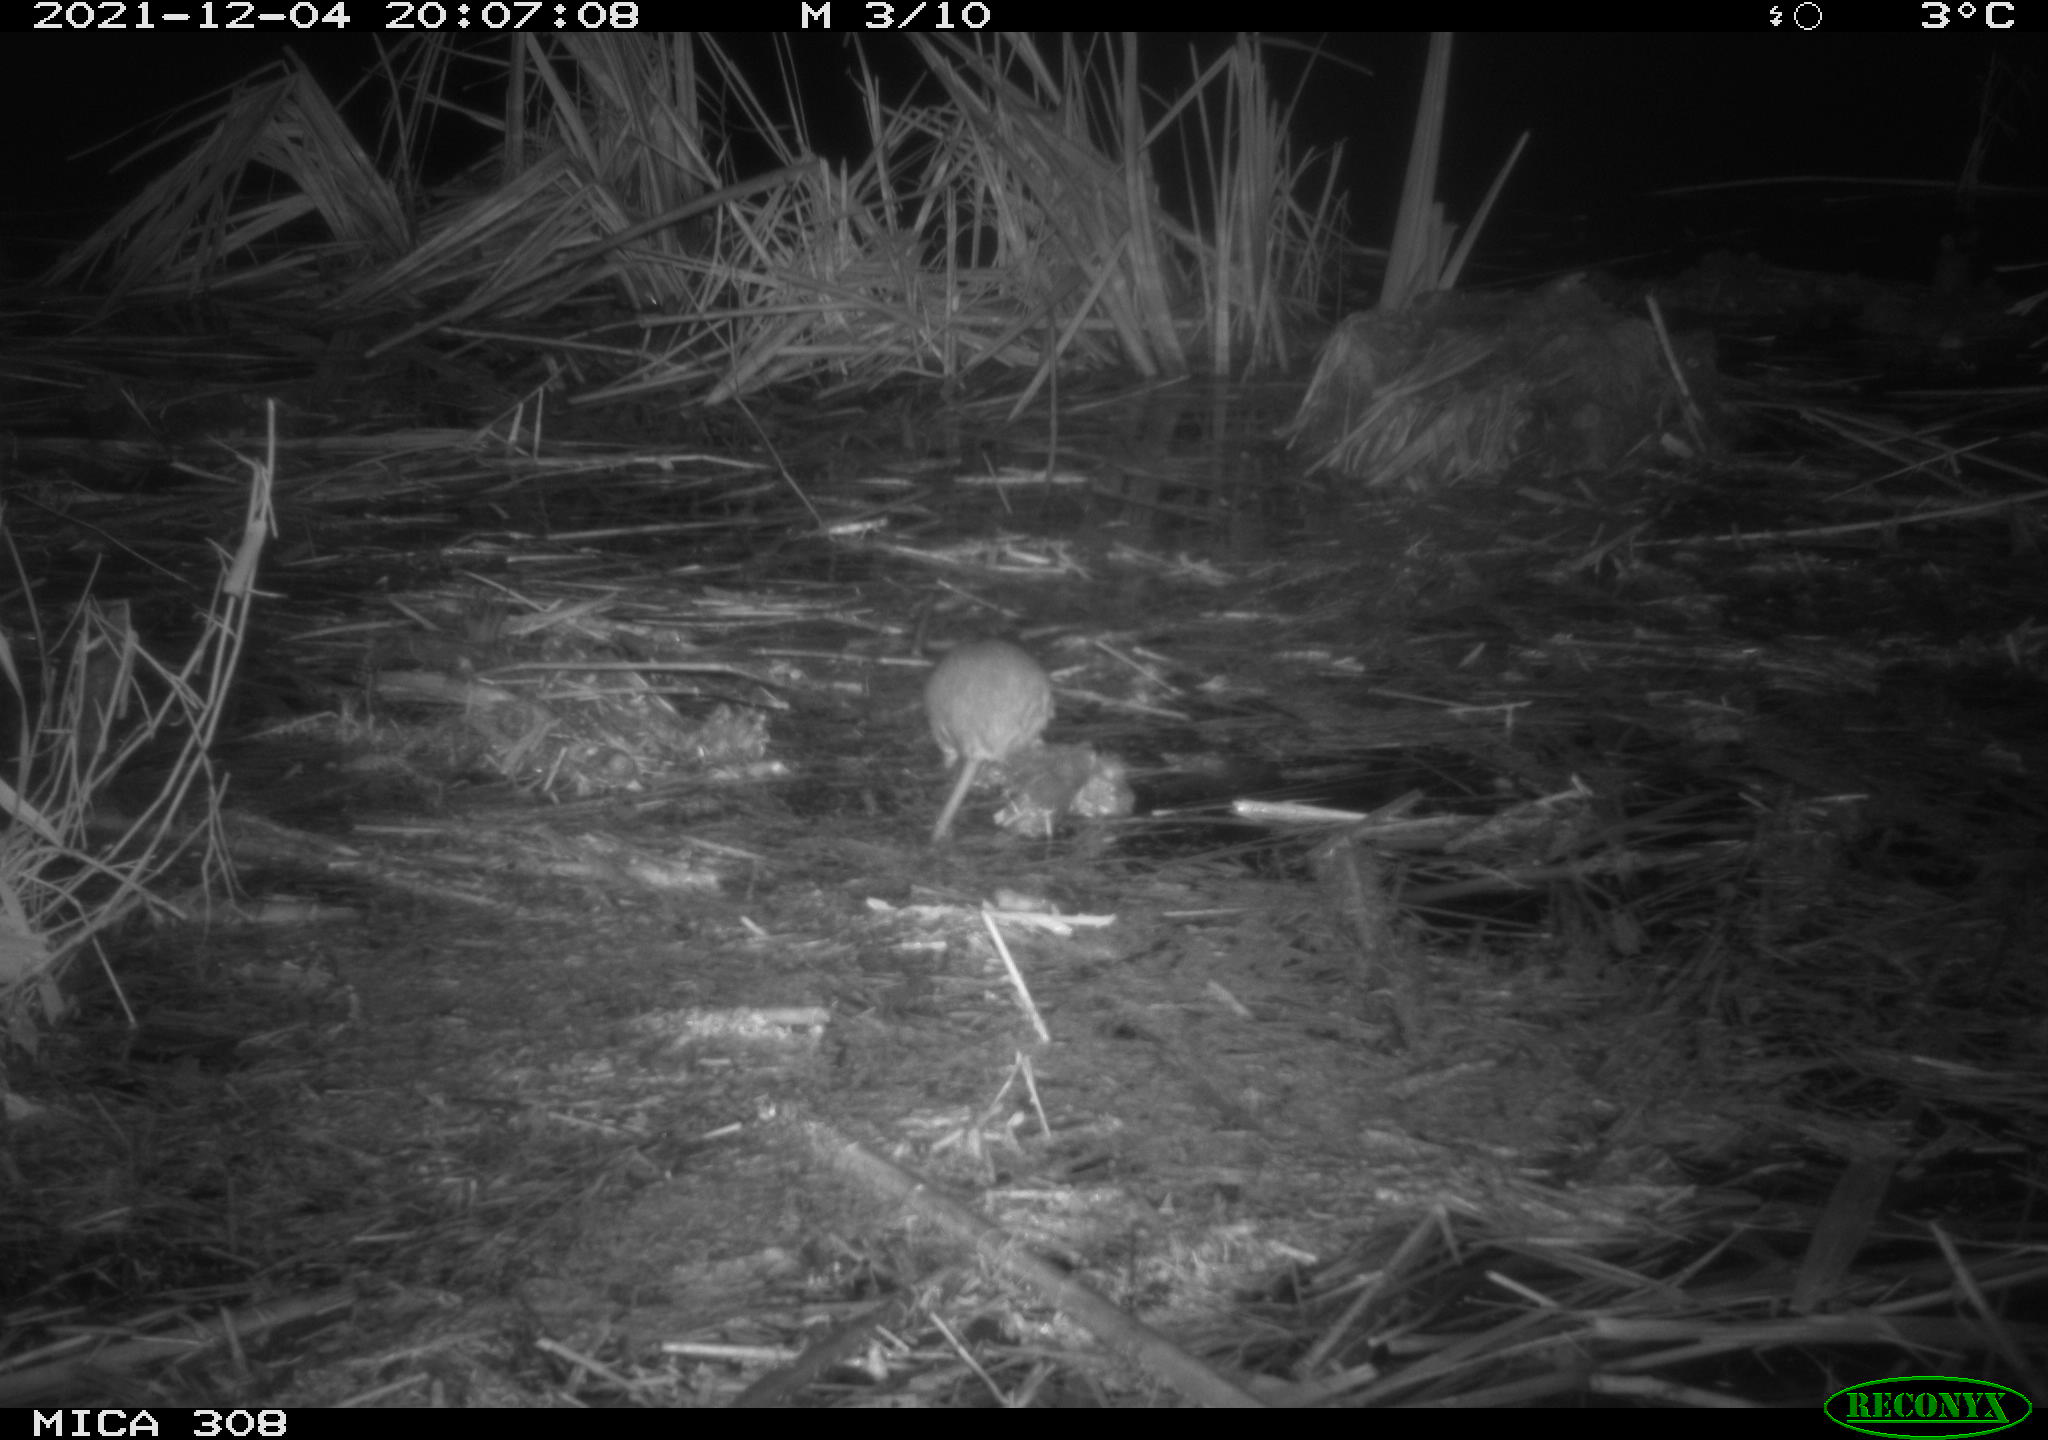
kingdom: Animalia
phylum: Chordata
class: Mammalia
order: Rodentia
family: Muridae
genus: Rattus
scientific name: Rattus norvegicus
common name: Brown rat
